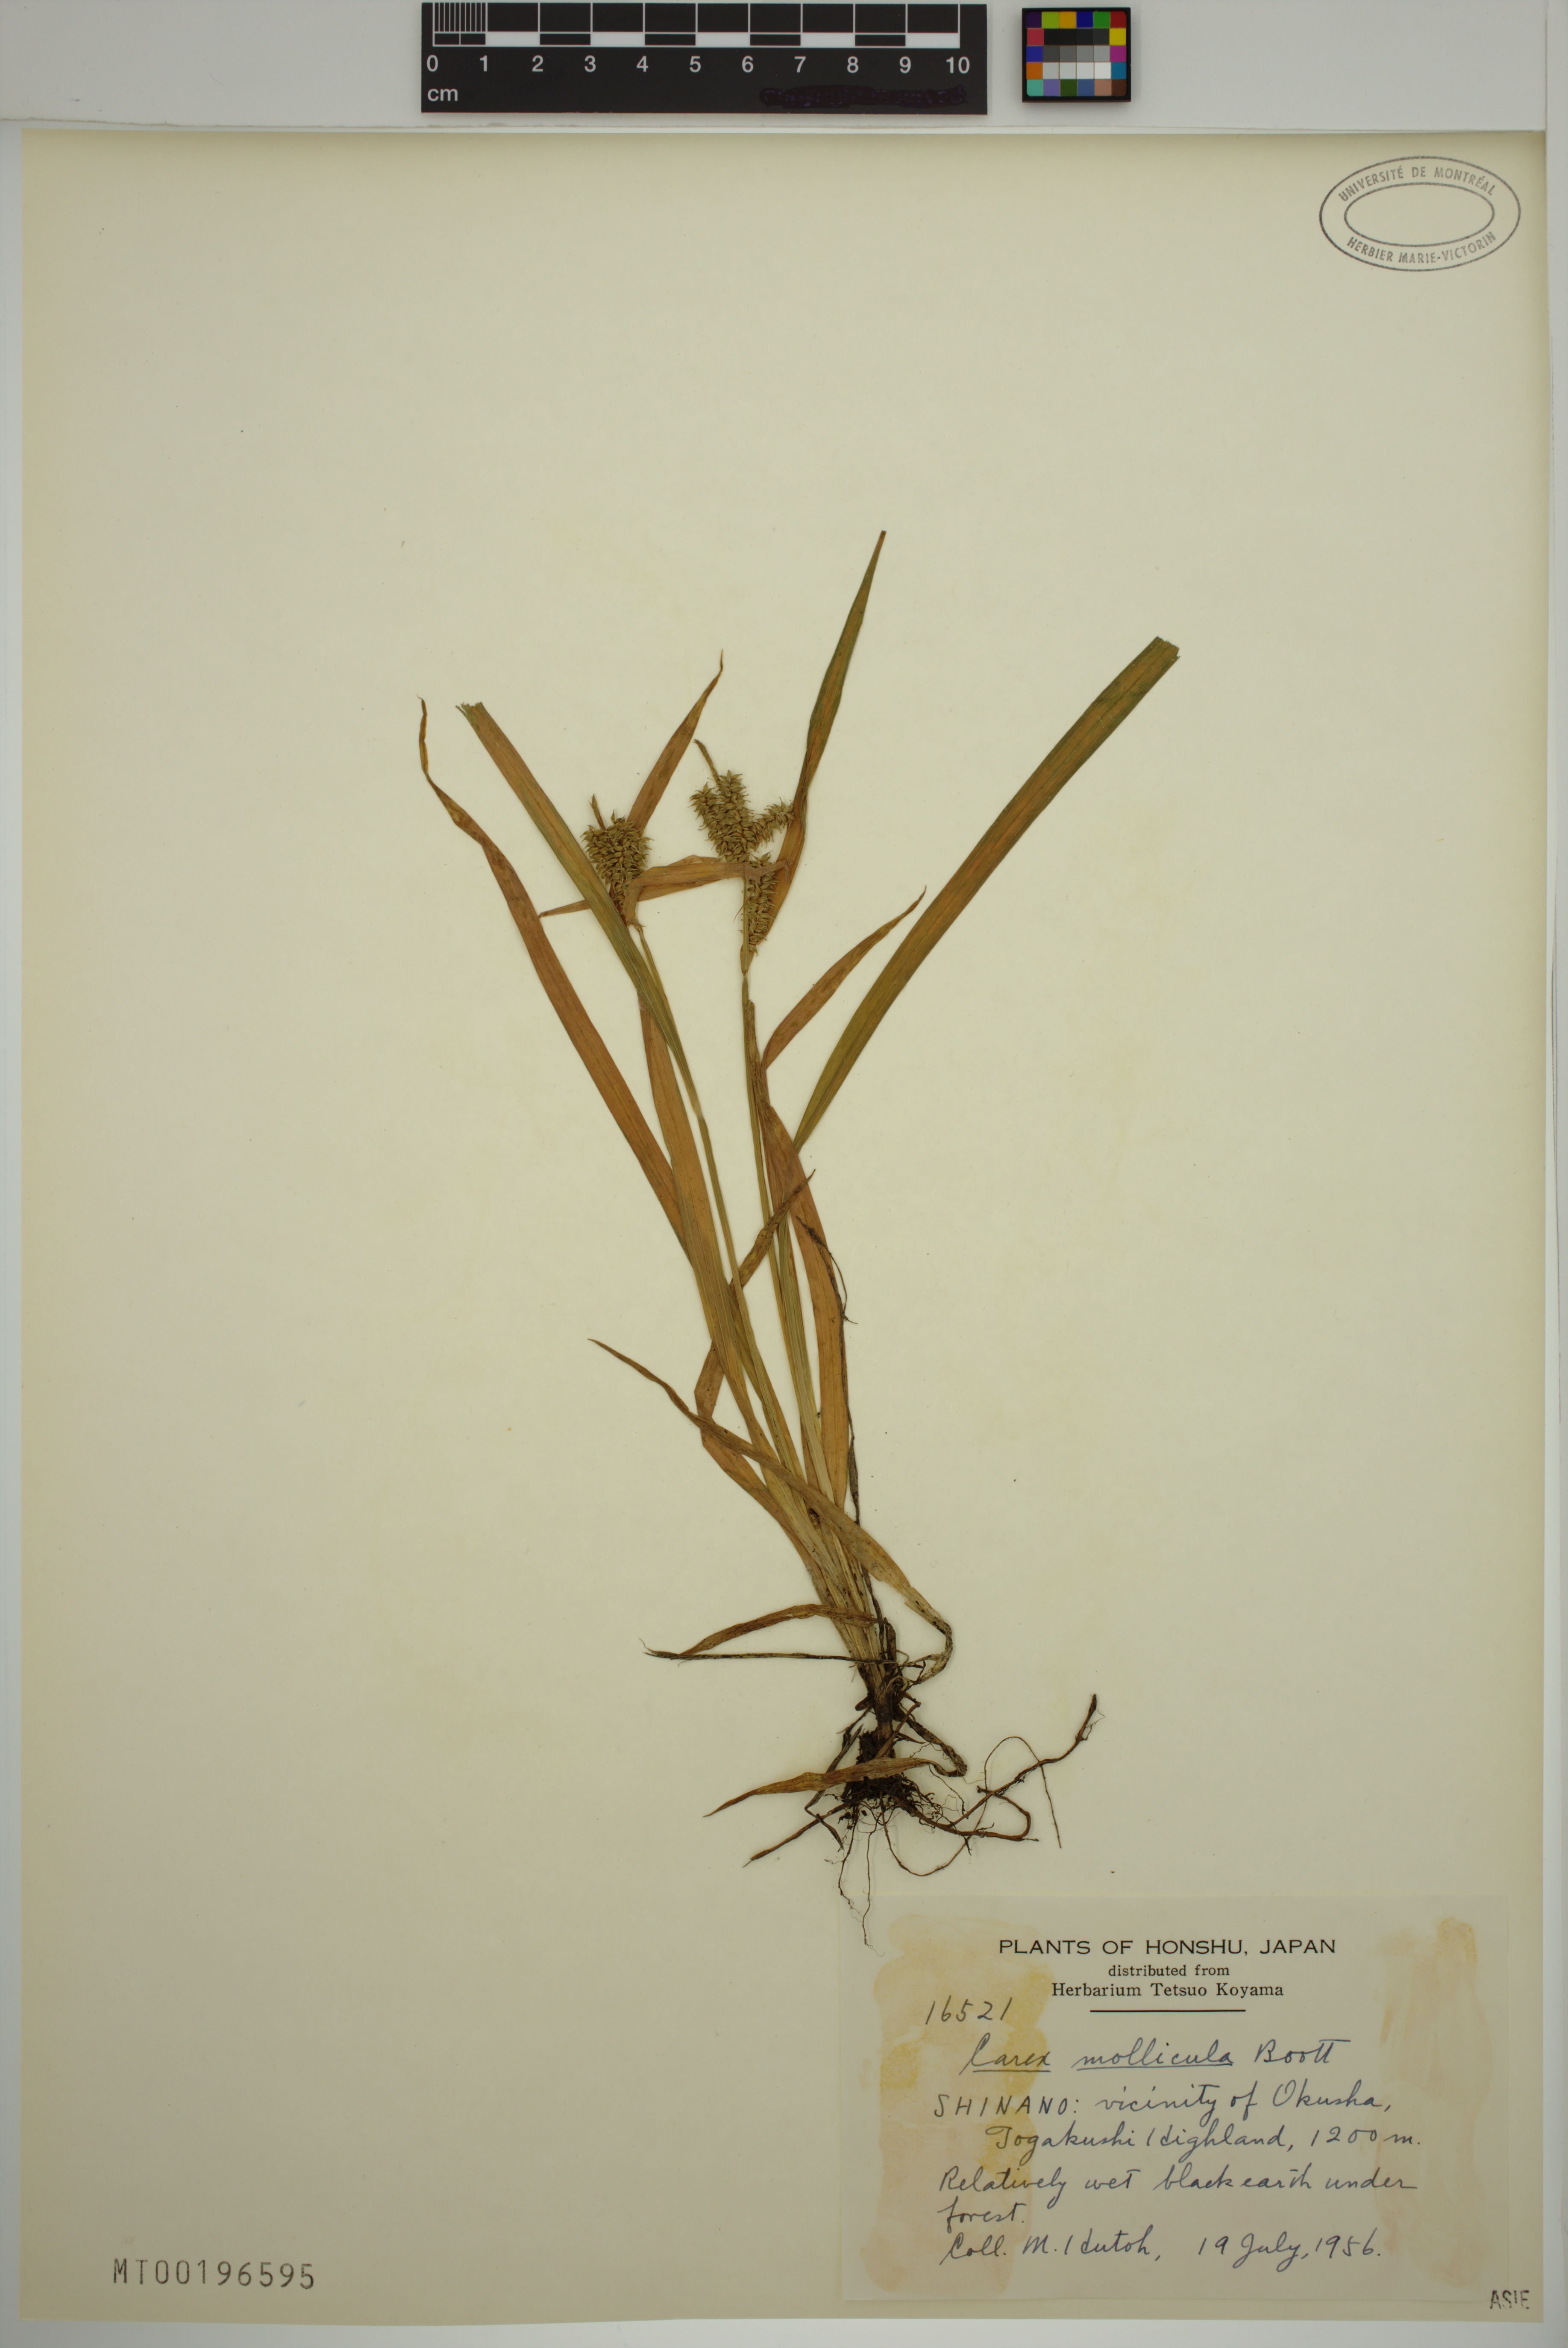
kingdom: Plantae
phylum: Tracheophyta
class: Liliopsida
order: Poales
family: Cyperaceae
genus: Carex
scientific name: Carex mollicula
